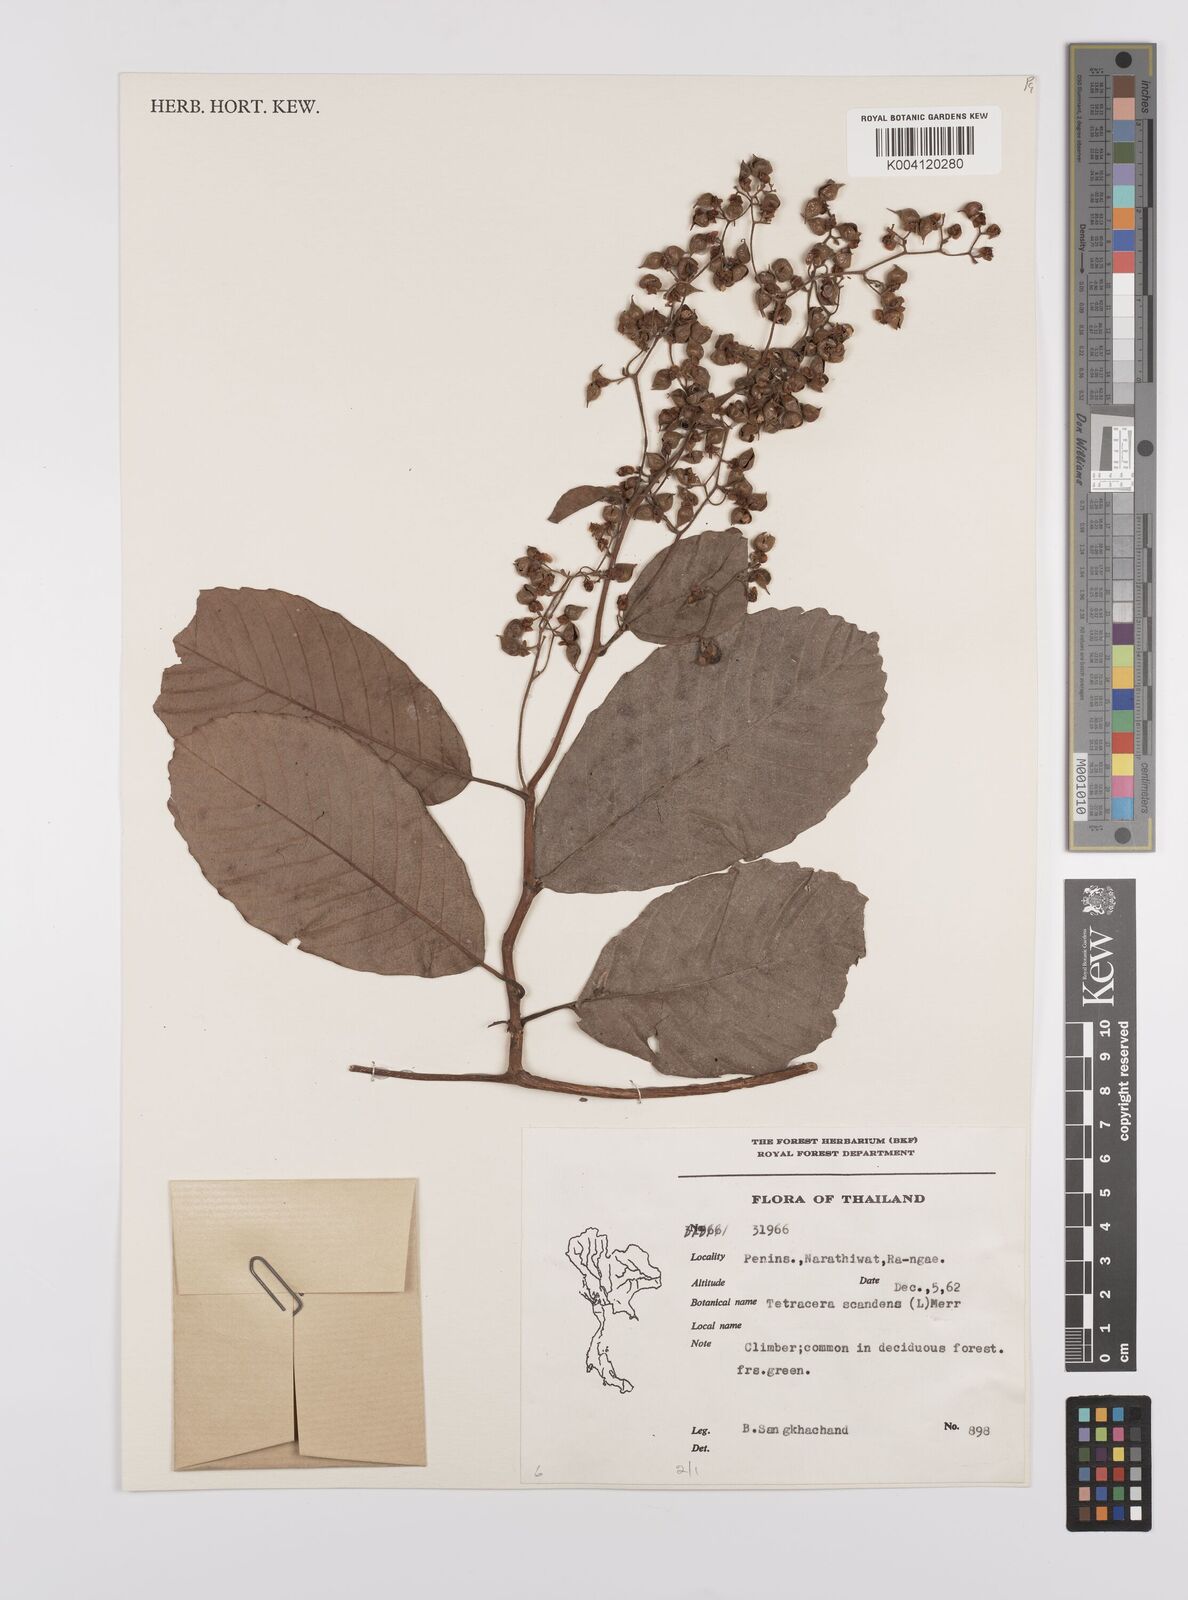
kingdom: Plantae
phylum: Tracheophyta
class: Magnoliopsida
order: Dilleniales
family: Dilleniaceae
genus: Tetracera
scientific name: Tetracera
